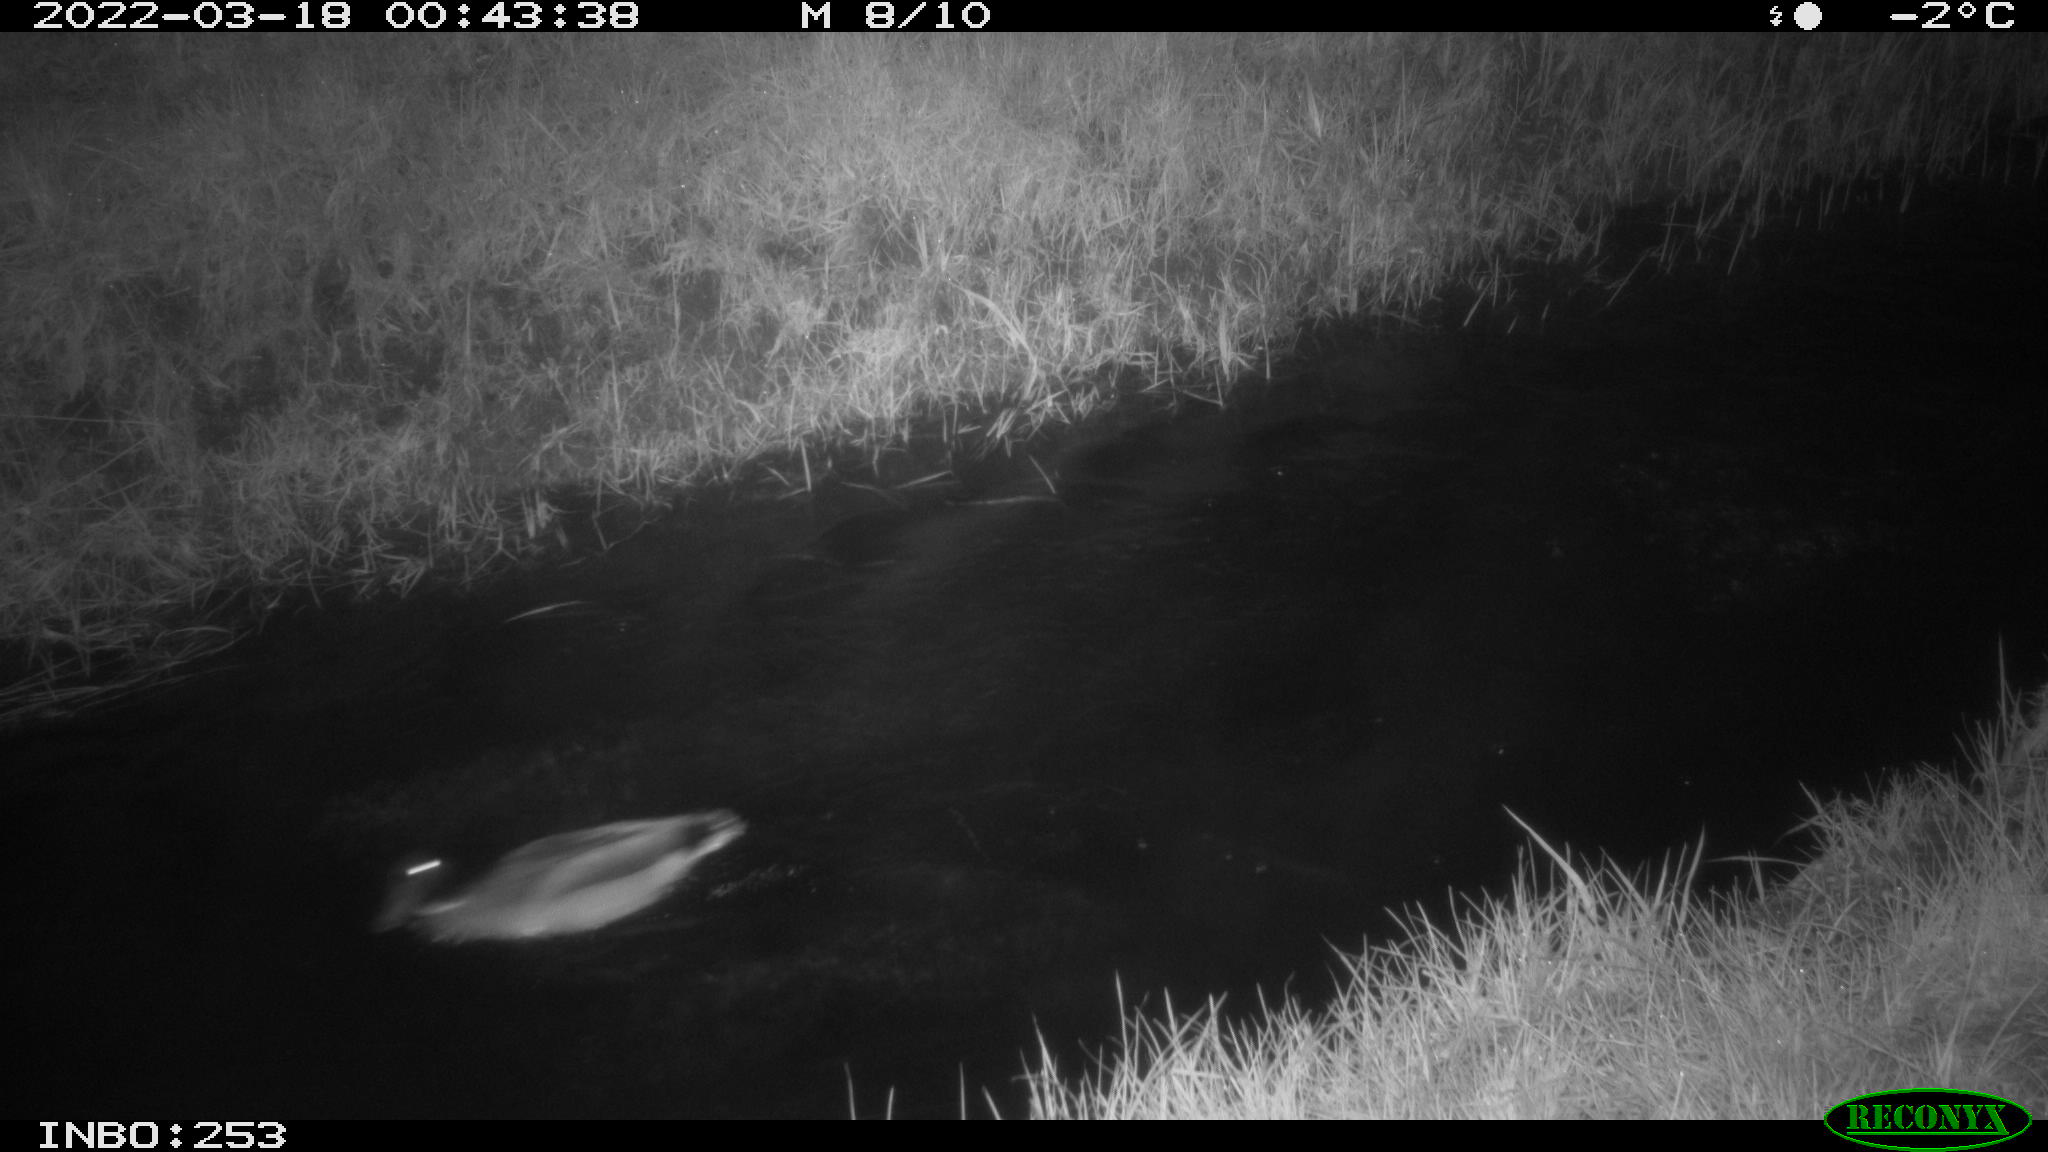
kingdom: Animalia
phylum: Chordata
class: Aves
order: Anseriformes
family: Anatidae
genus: Anas
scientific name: Anas platyrhynchos
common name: Mallard
